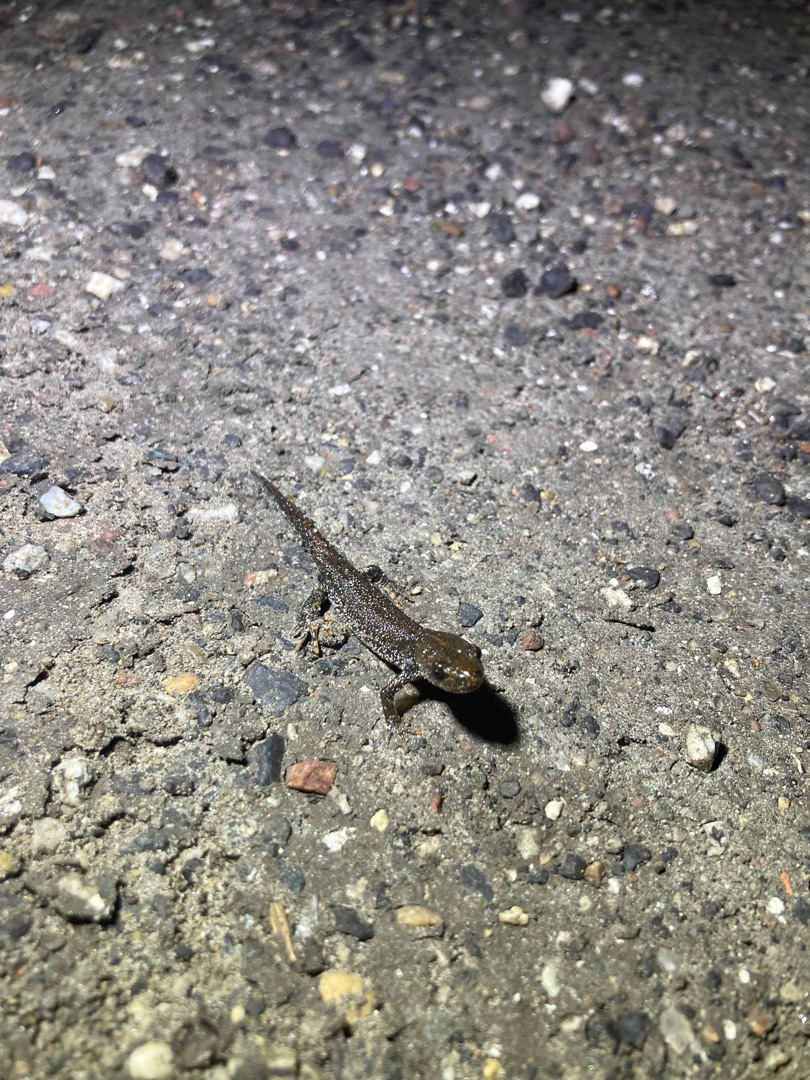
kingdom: Animalia
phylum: Chordata
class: Amphibia
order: Caudata
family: Salamandridae
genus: Triturus
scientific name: Triturus cristatus
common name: Stor vandsalamander
